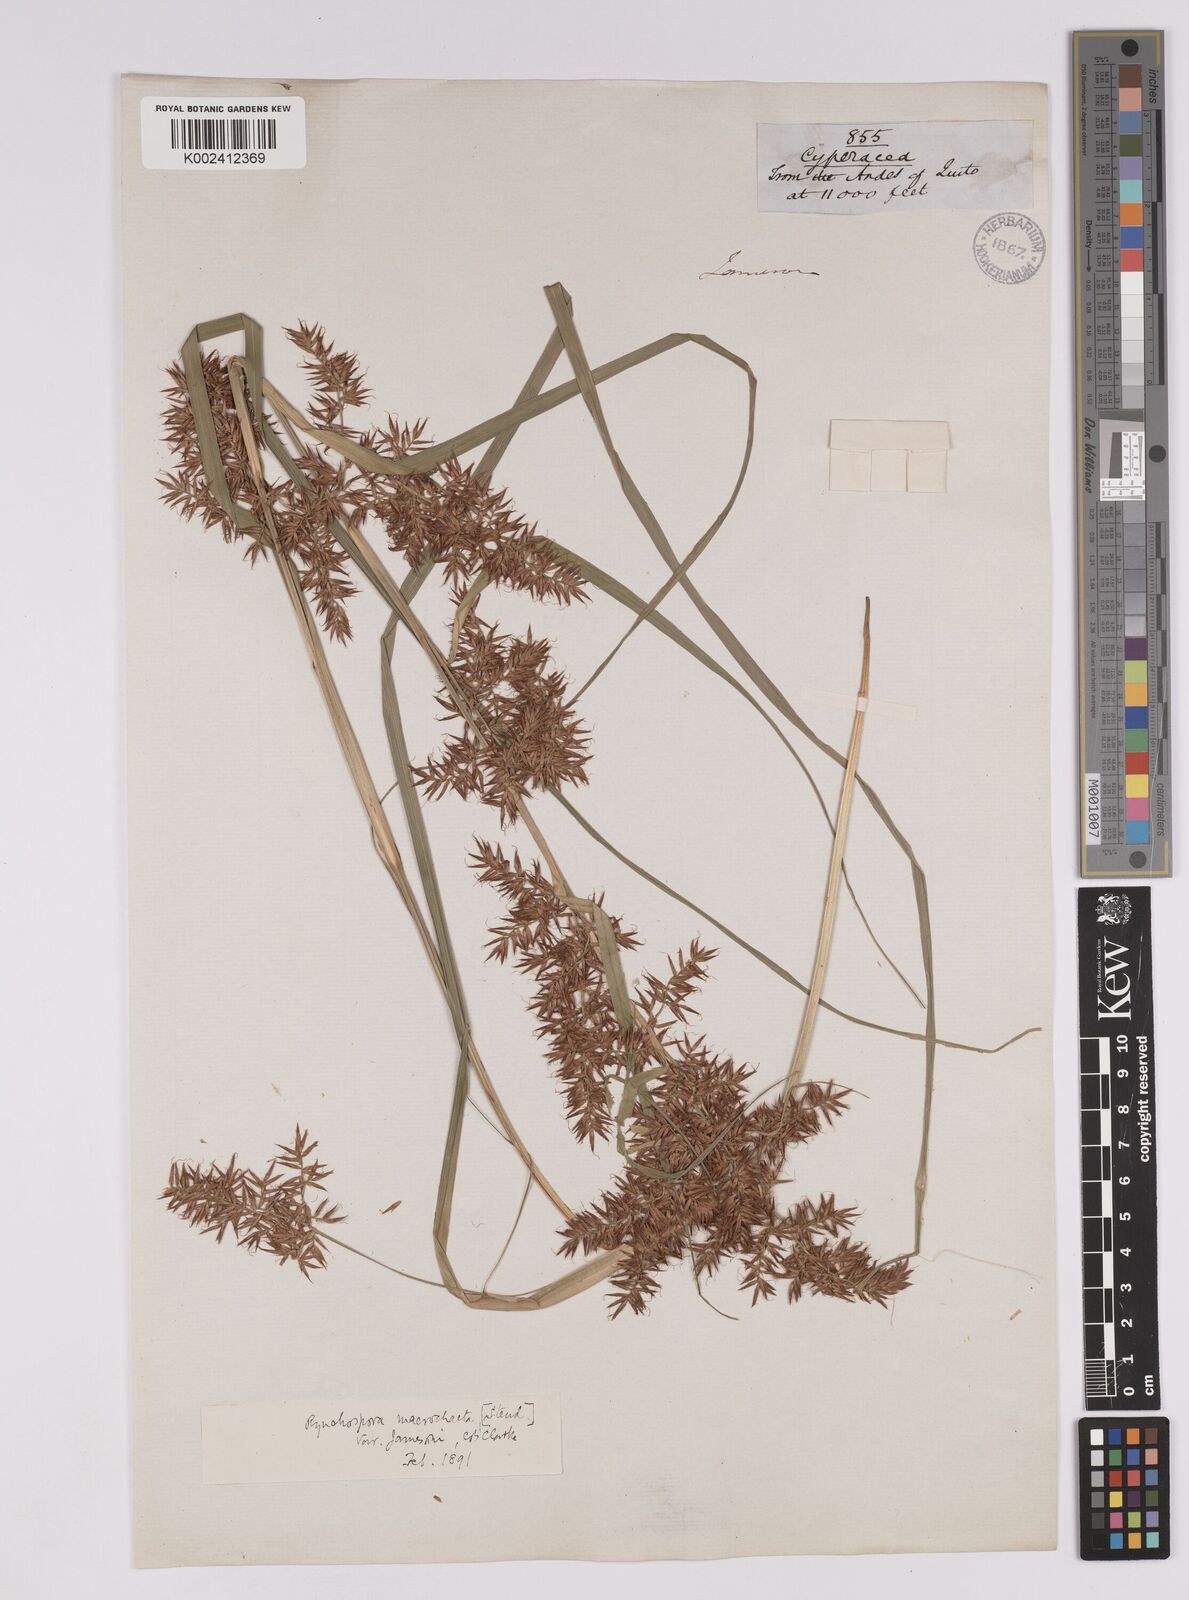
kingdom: Plantae
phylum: Tracheophyta
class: Liliopsida
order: Poales
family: Cyperaceae
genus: Rhynchospora
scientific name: Rhynchospora macrochaeta
